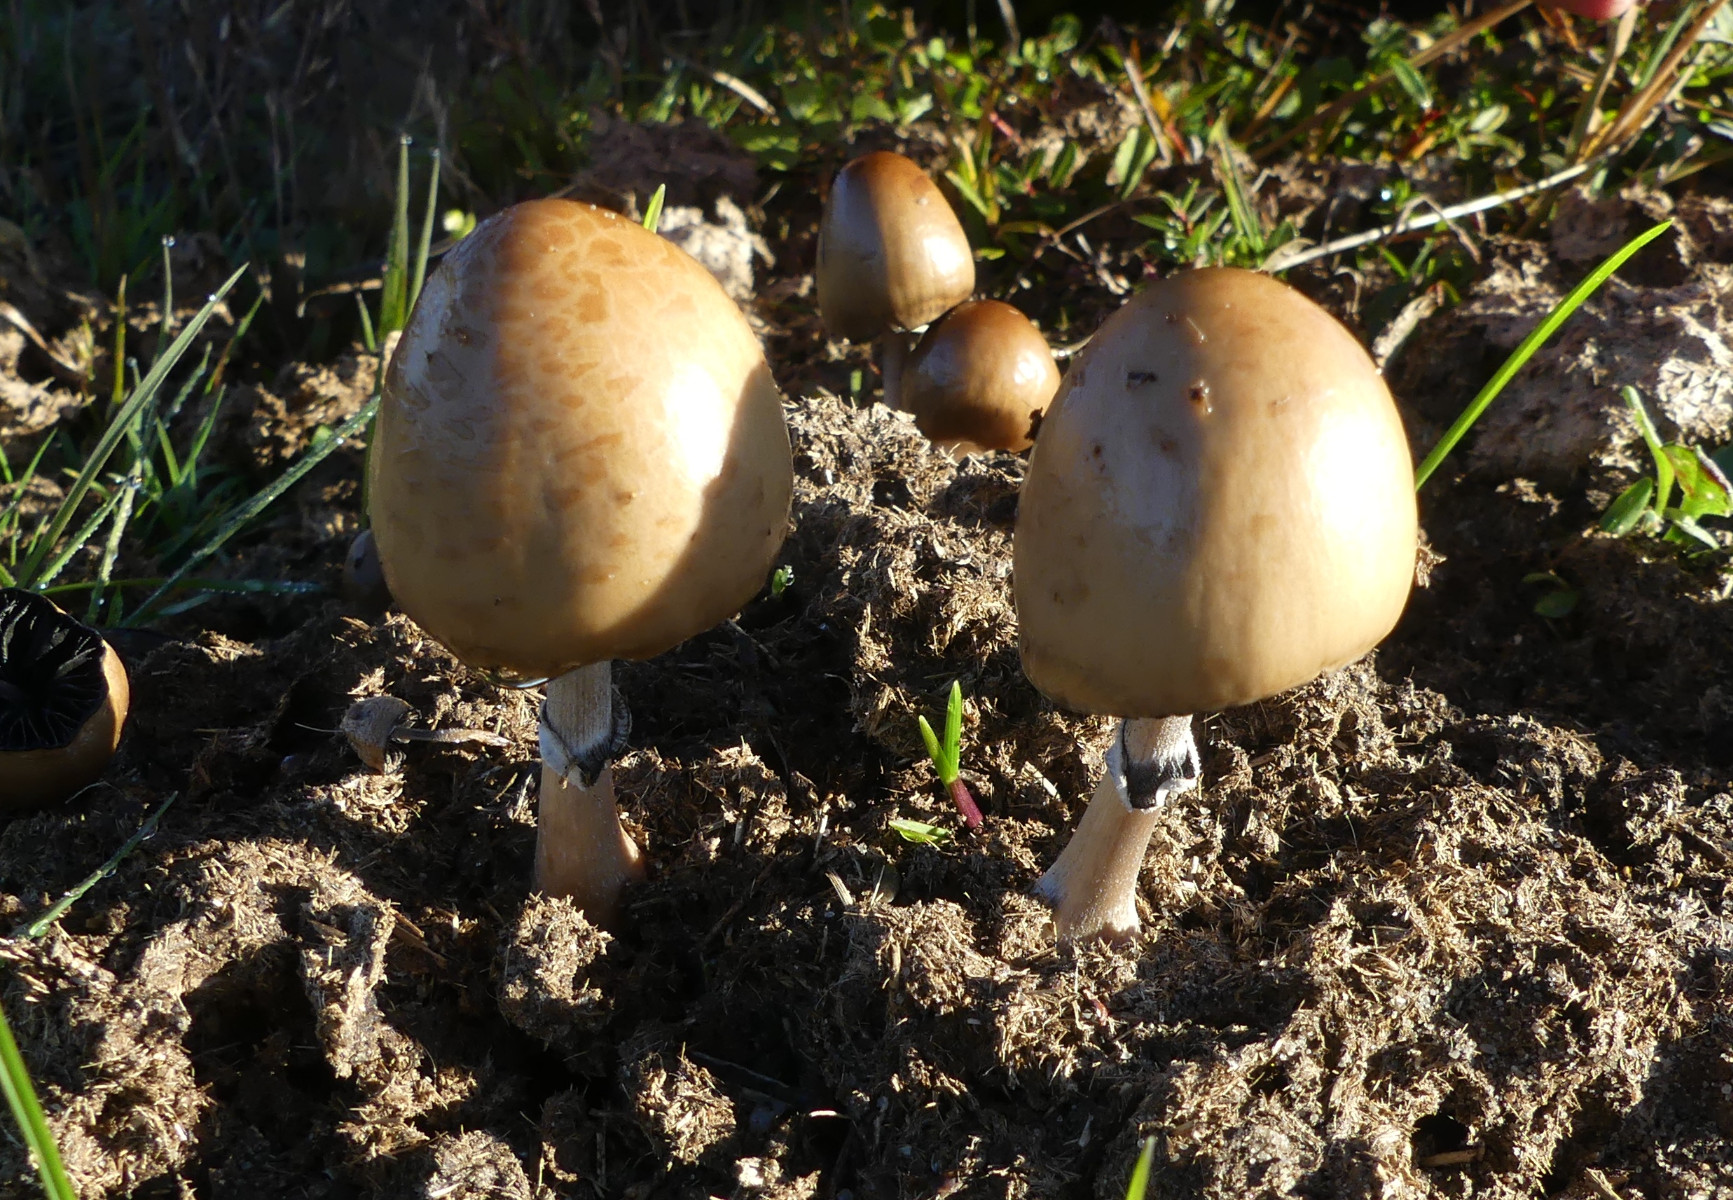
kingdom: Fungi
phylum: Basidiomycota
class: Agaricomycetes
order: Agaricales
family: Bolbitiaceae
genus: Panaeolus
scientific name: Panaeolus semiovatus
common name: ring-glanshat
